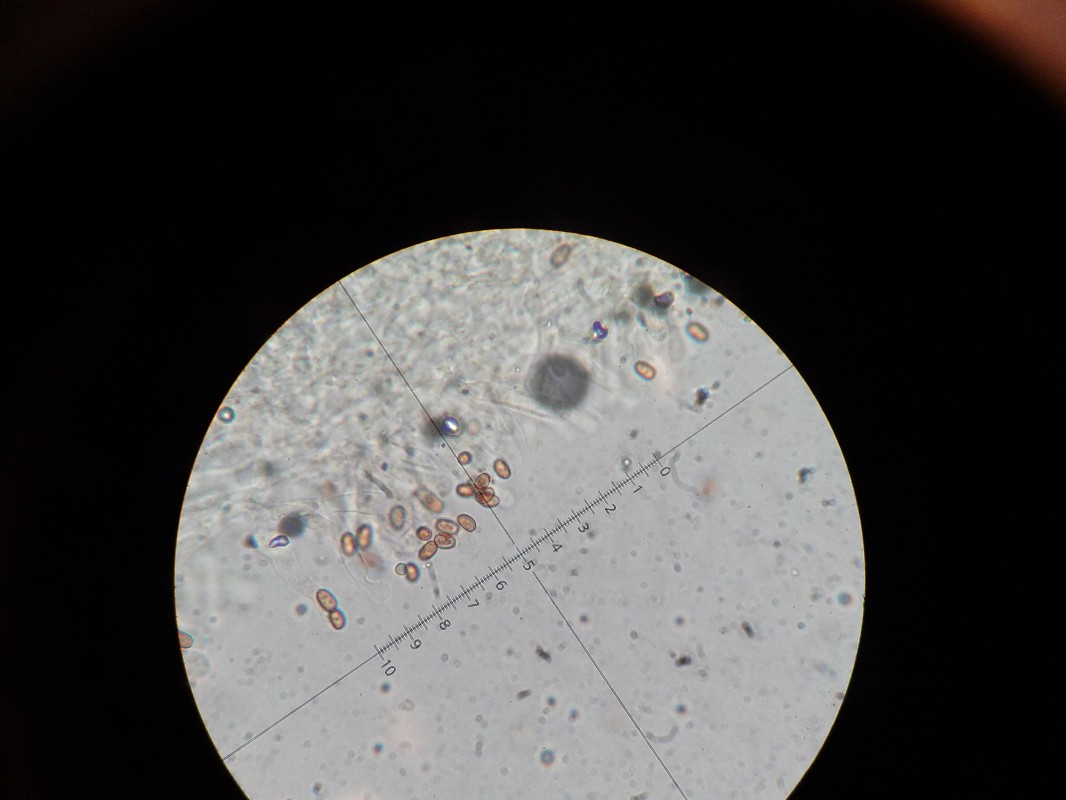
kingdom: Fungi
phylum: Basidiomycota
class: Agaricomycetes
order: Agaricales
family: Strophariaceae
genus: Pholiota
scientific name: Pholiota gummosa
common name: grøngul skælhat
